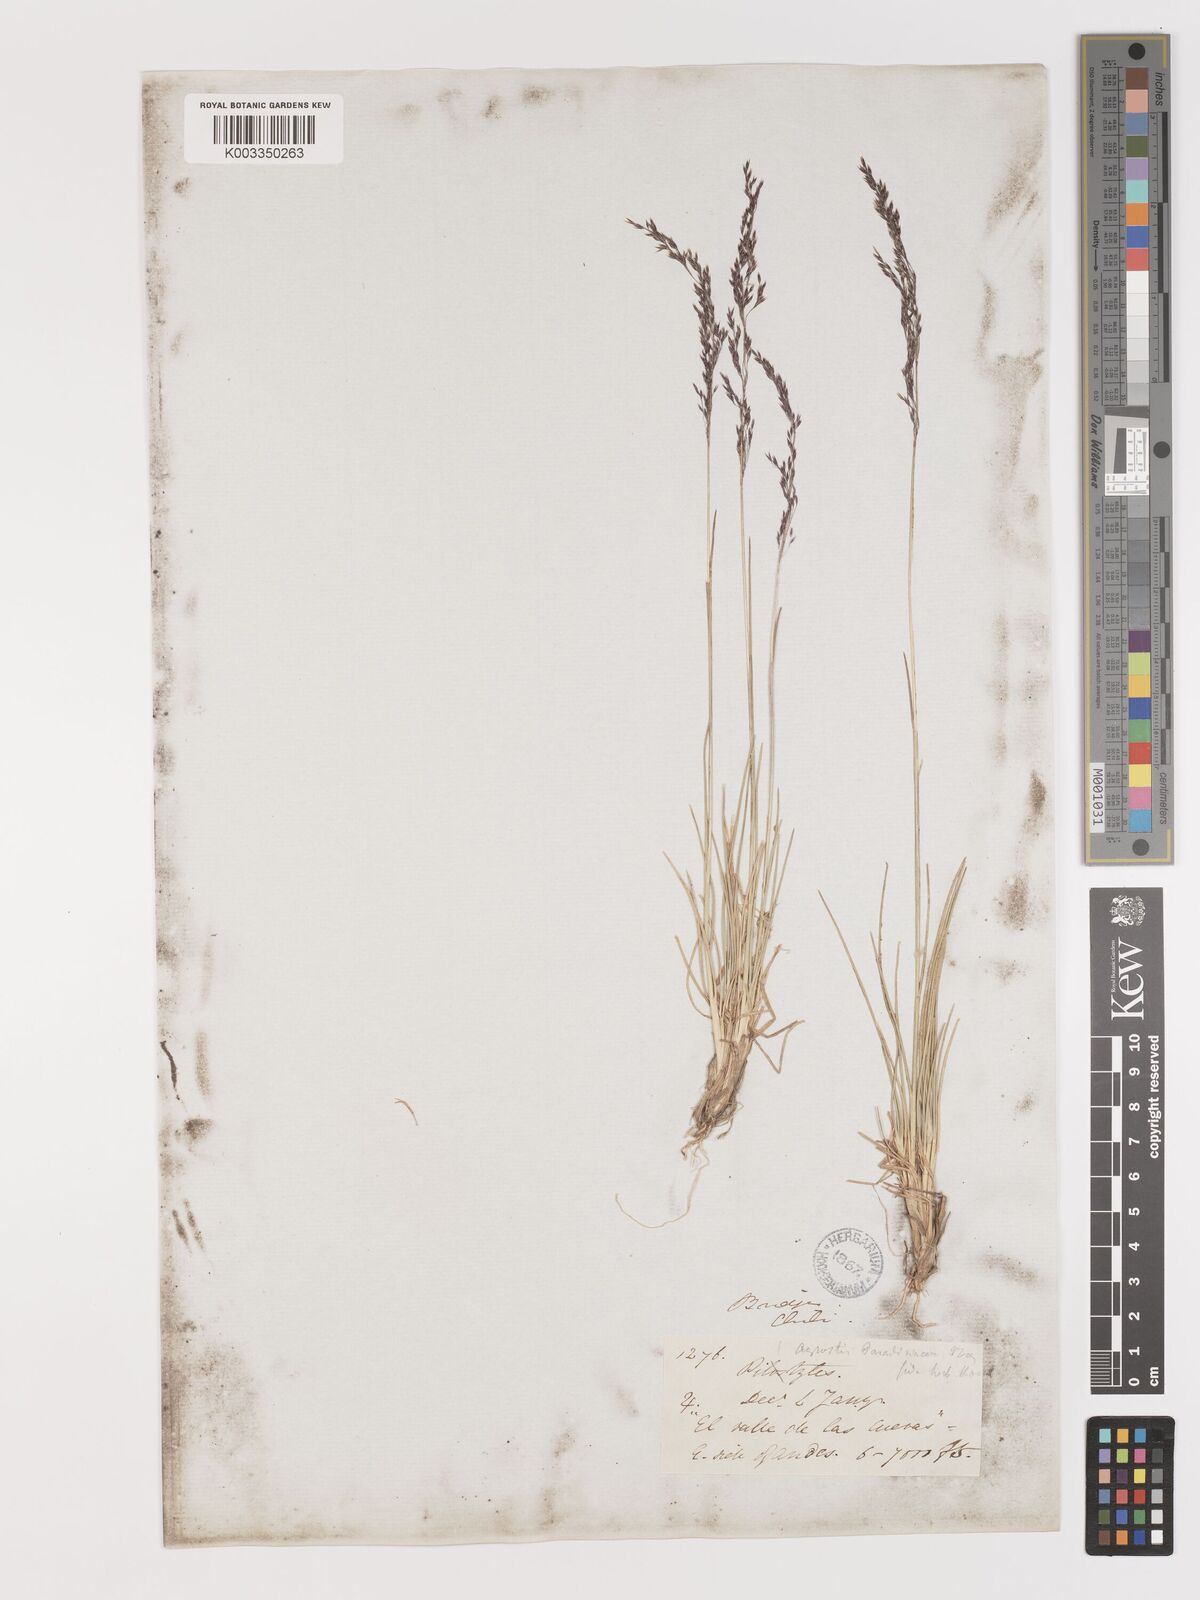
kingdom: Plantae
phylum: Tracheophyta
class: Liliopsida
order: Poales
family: Poaceae
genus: Agrostis
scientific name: Agrostis imberbis
